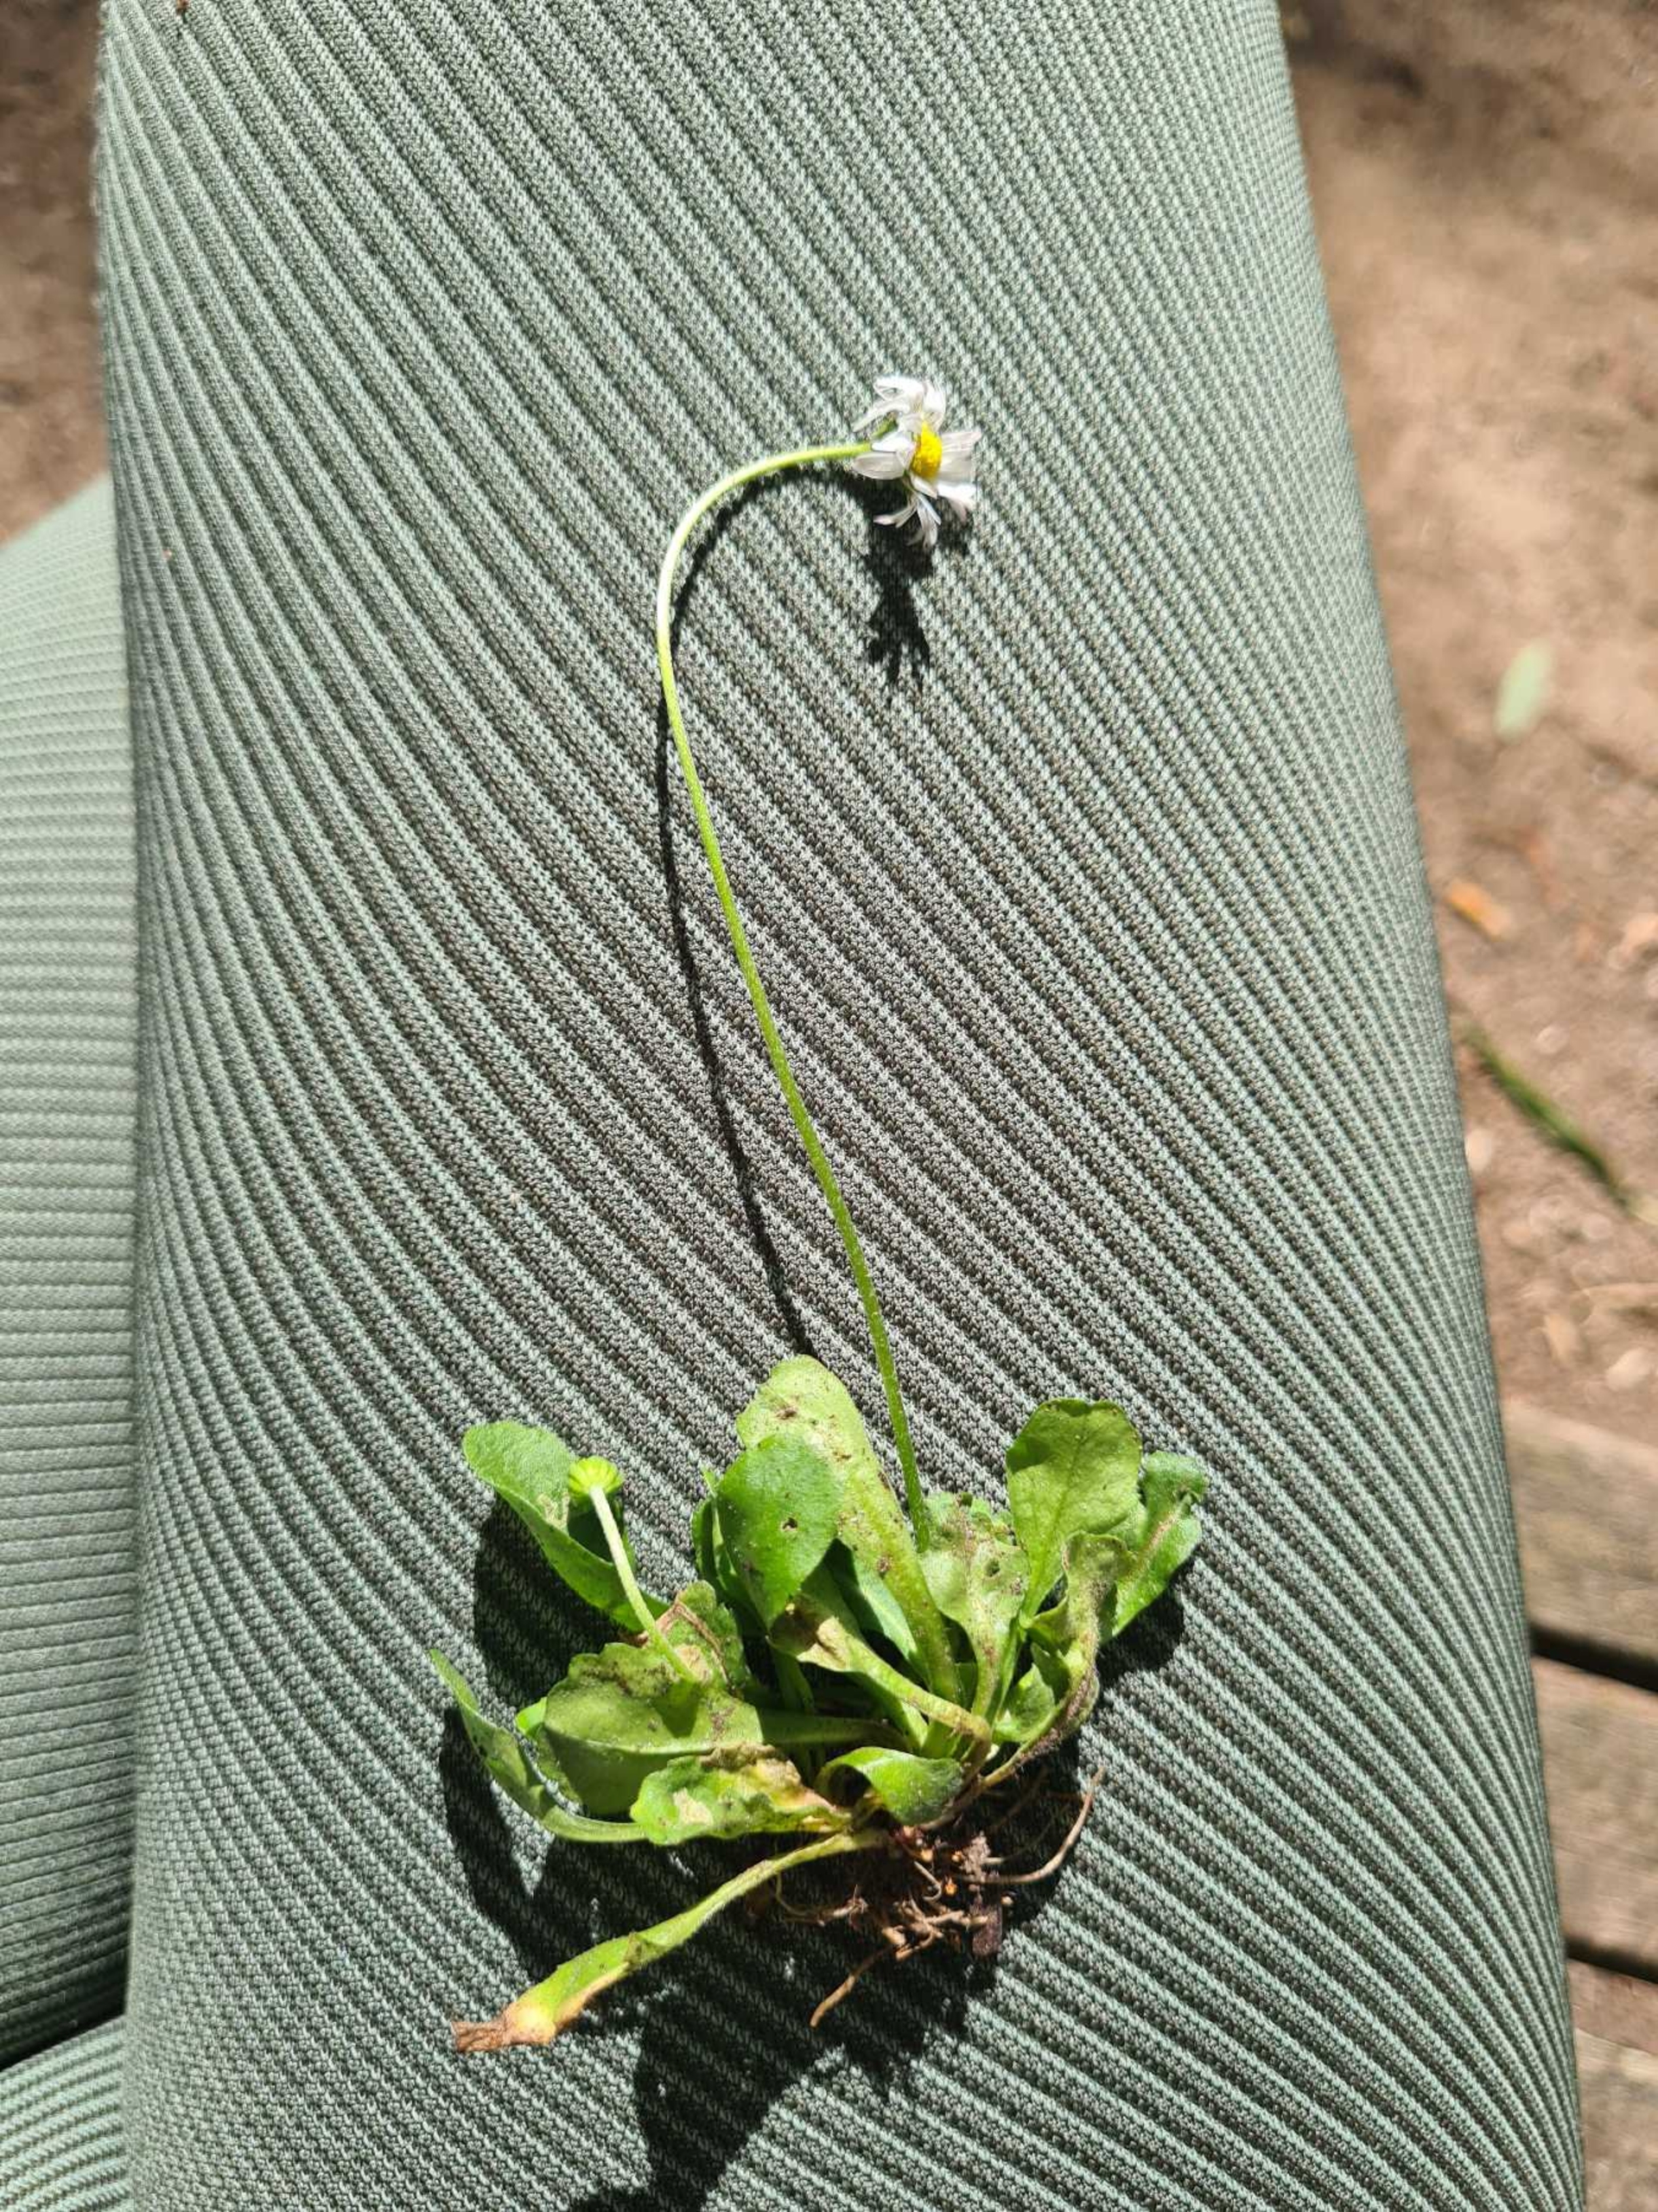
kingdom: Plantae
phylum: Tracheophyta
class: Magnoliopsida
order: Asterales
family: Asteraceae
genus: Bellis
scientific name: Bellis perennis
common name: Tusindfryd
